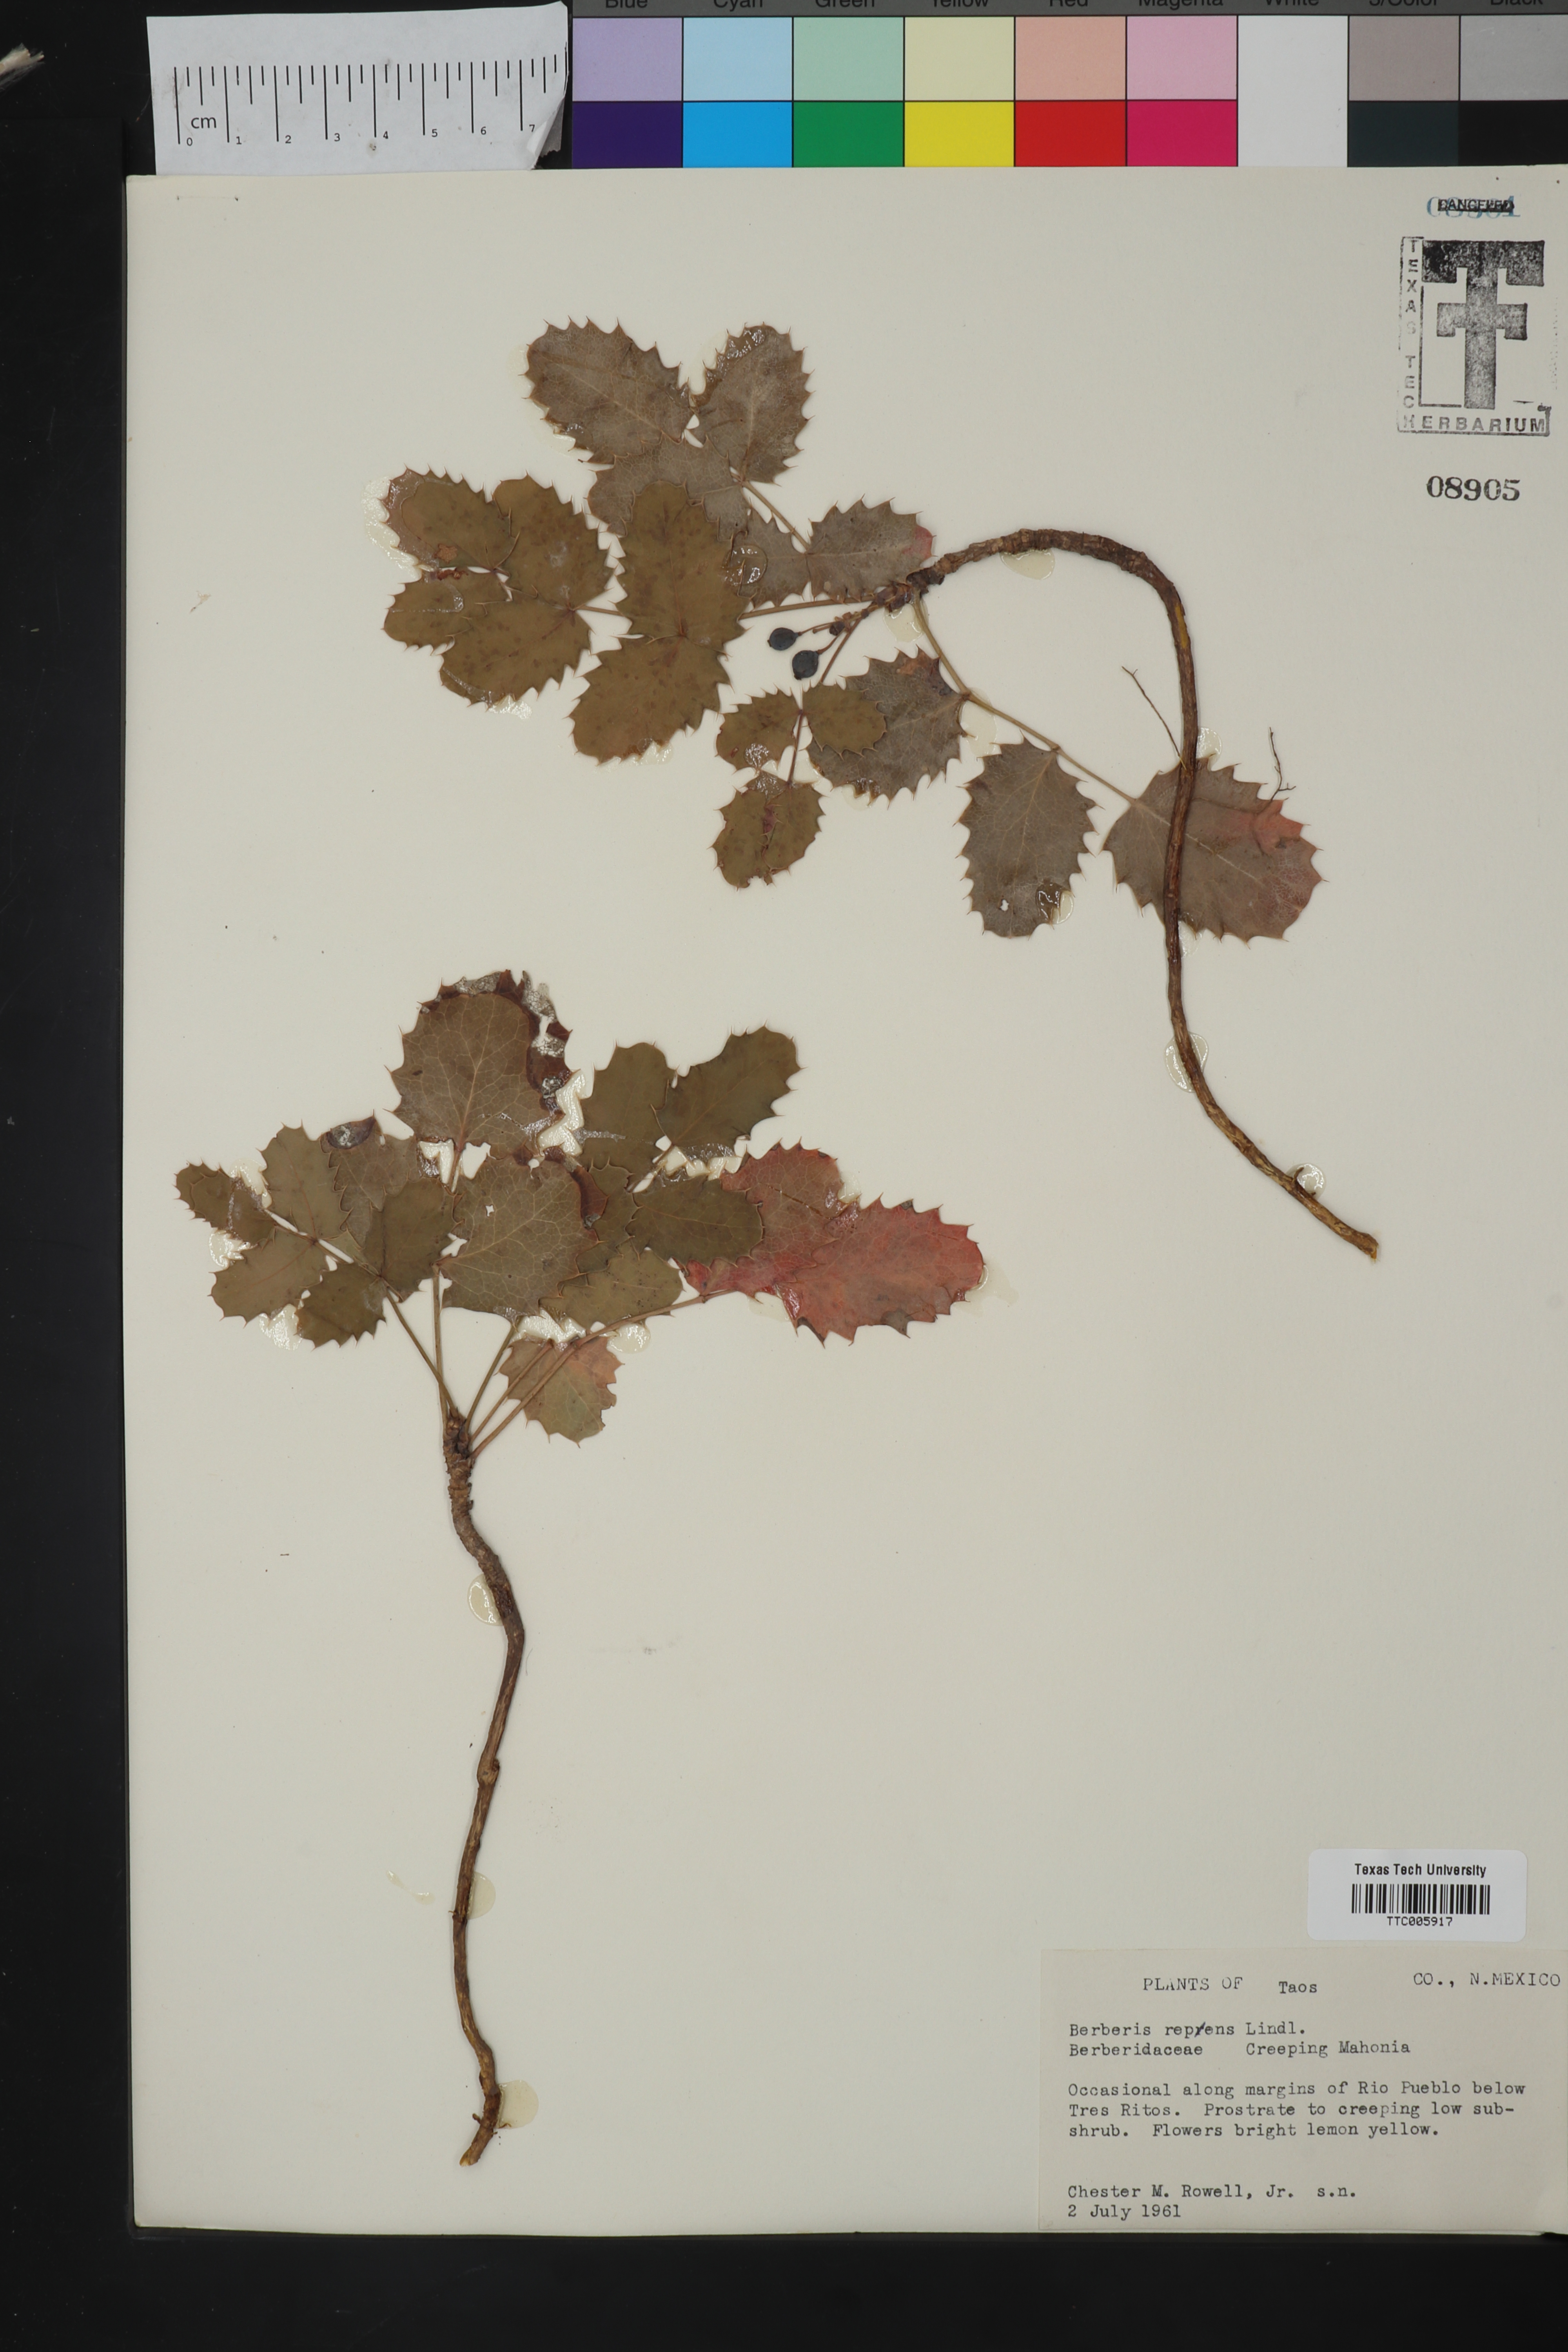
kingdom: Plantae
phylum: Tracheophyta
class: Magnoliopsida
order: Ranunculales
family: Berberidaceae
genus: Mahonia
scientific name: Mahonia repens
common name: Creeping oregon-grape
